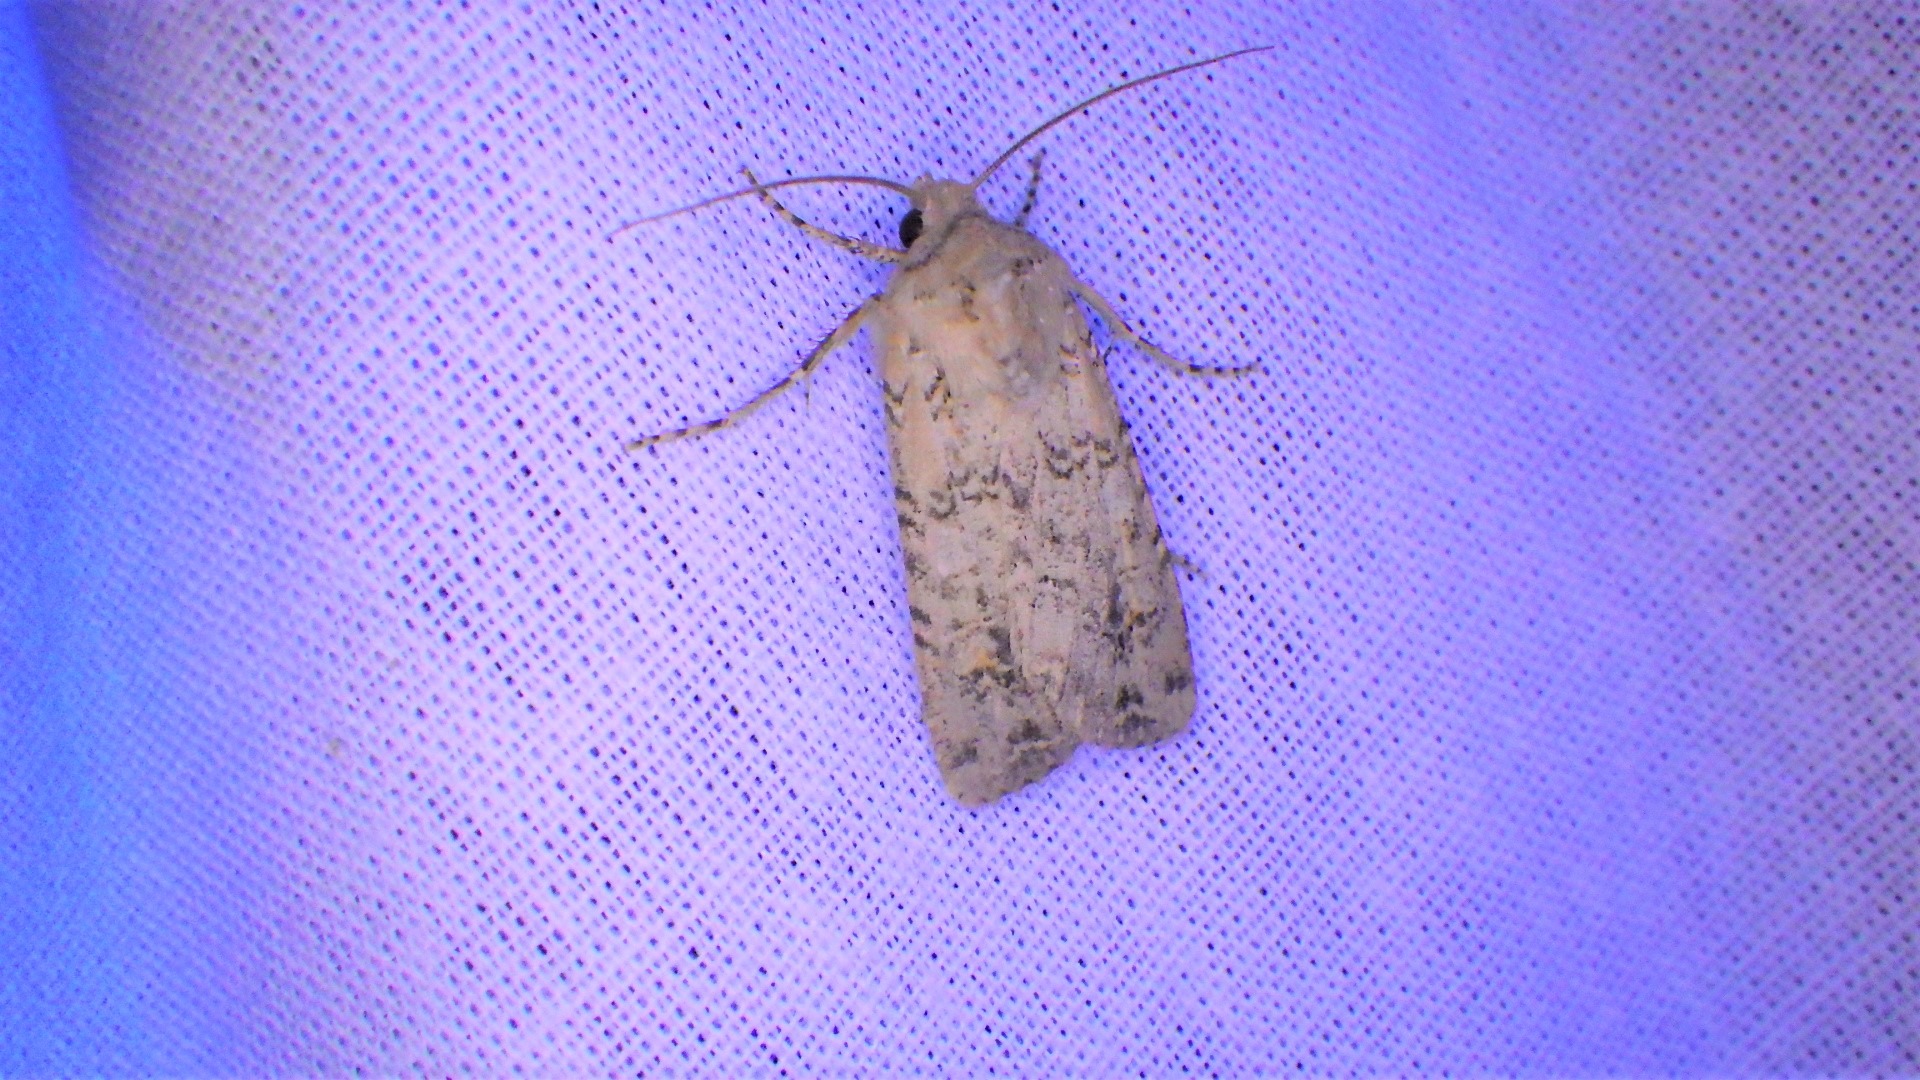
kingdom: Animalia
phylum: Arthropoda
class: Insecta
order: Lepidoptera
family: Noctuidae
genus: Euxoa
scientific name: Euxoa cursoria
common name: Sandugle
